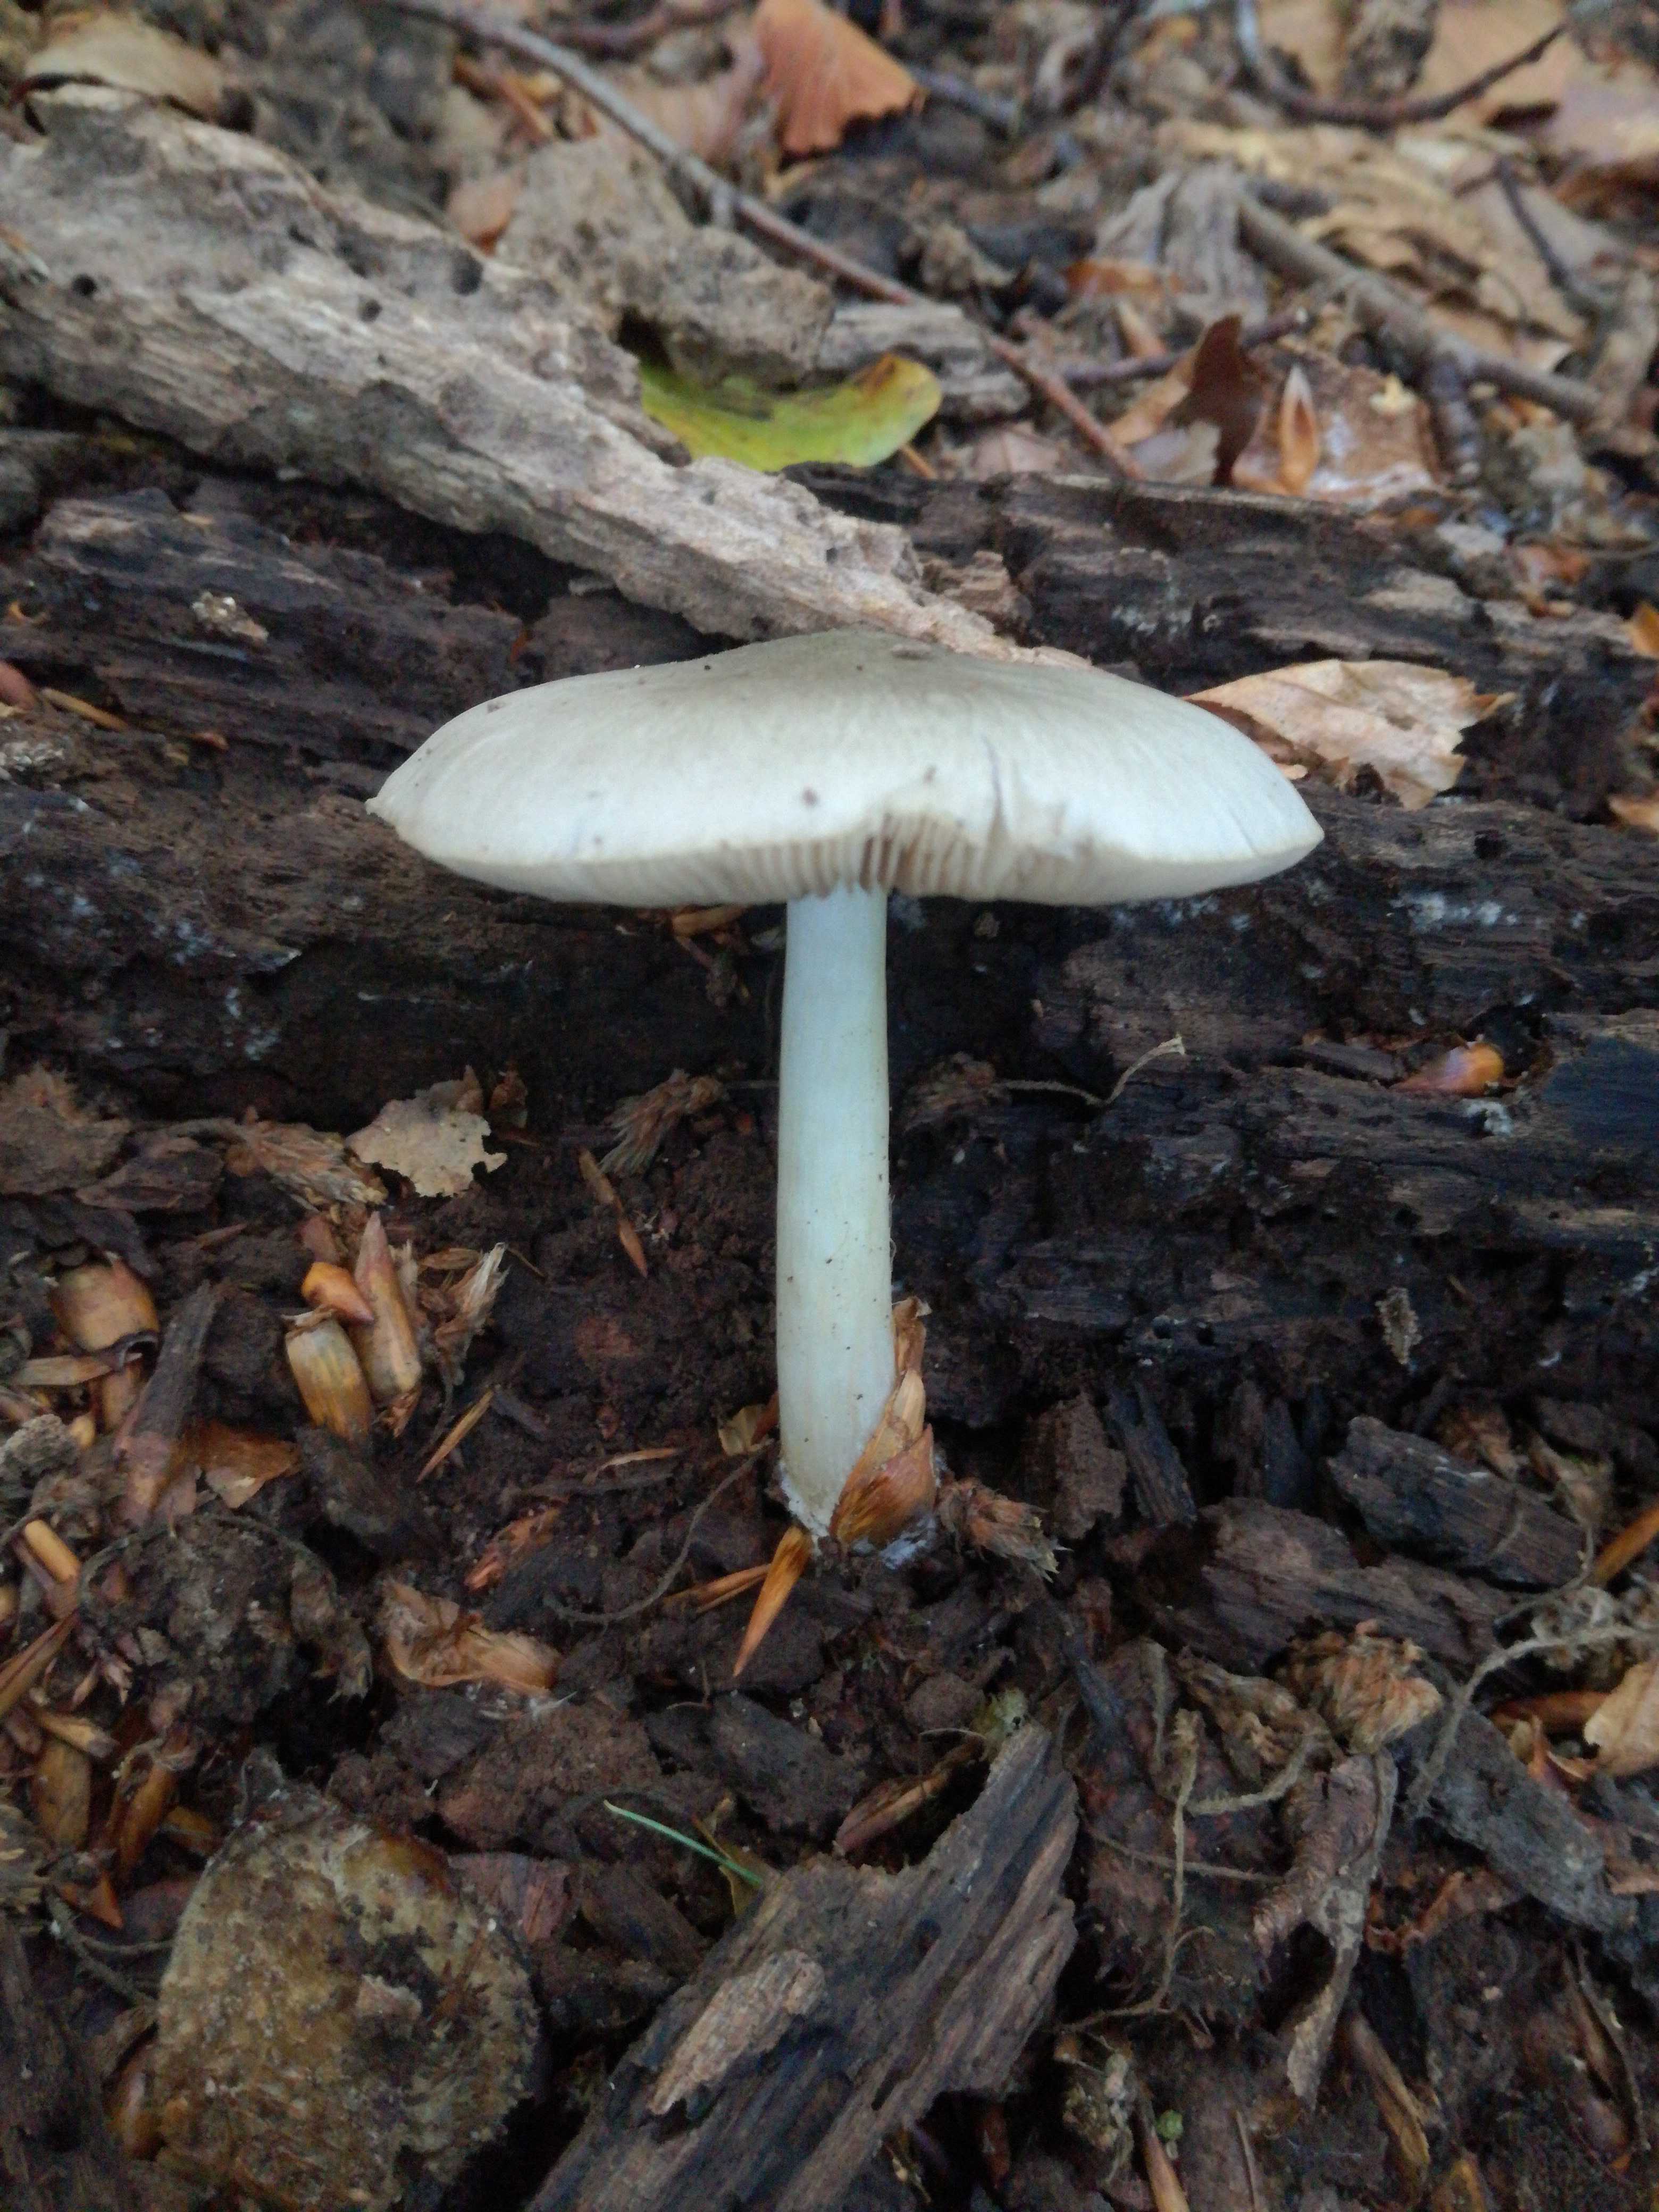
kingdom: Fungi
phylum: Basidiomycota
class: Agaricomycetes
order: Agaricales
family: Pluteaceae
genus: Pluteus
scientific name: Pluteus salicinus
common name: stiv skærmhat
